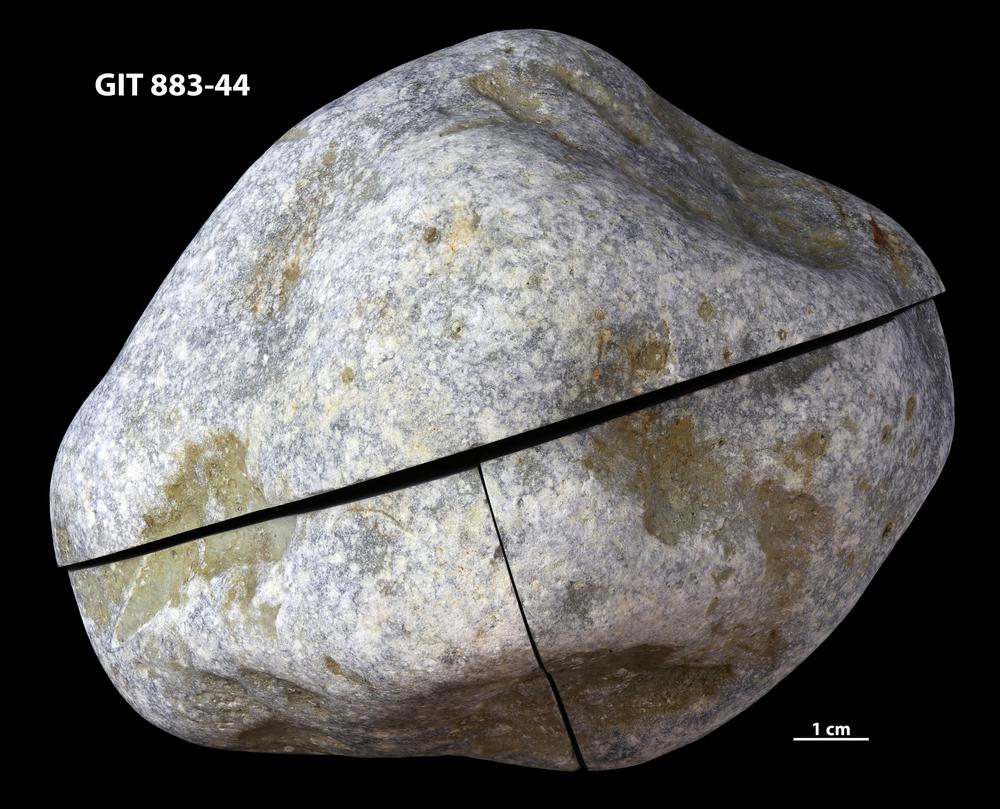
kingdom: Animalia
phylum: Porifera
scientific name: Porifera
